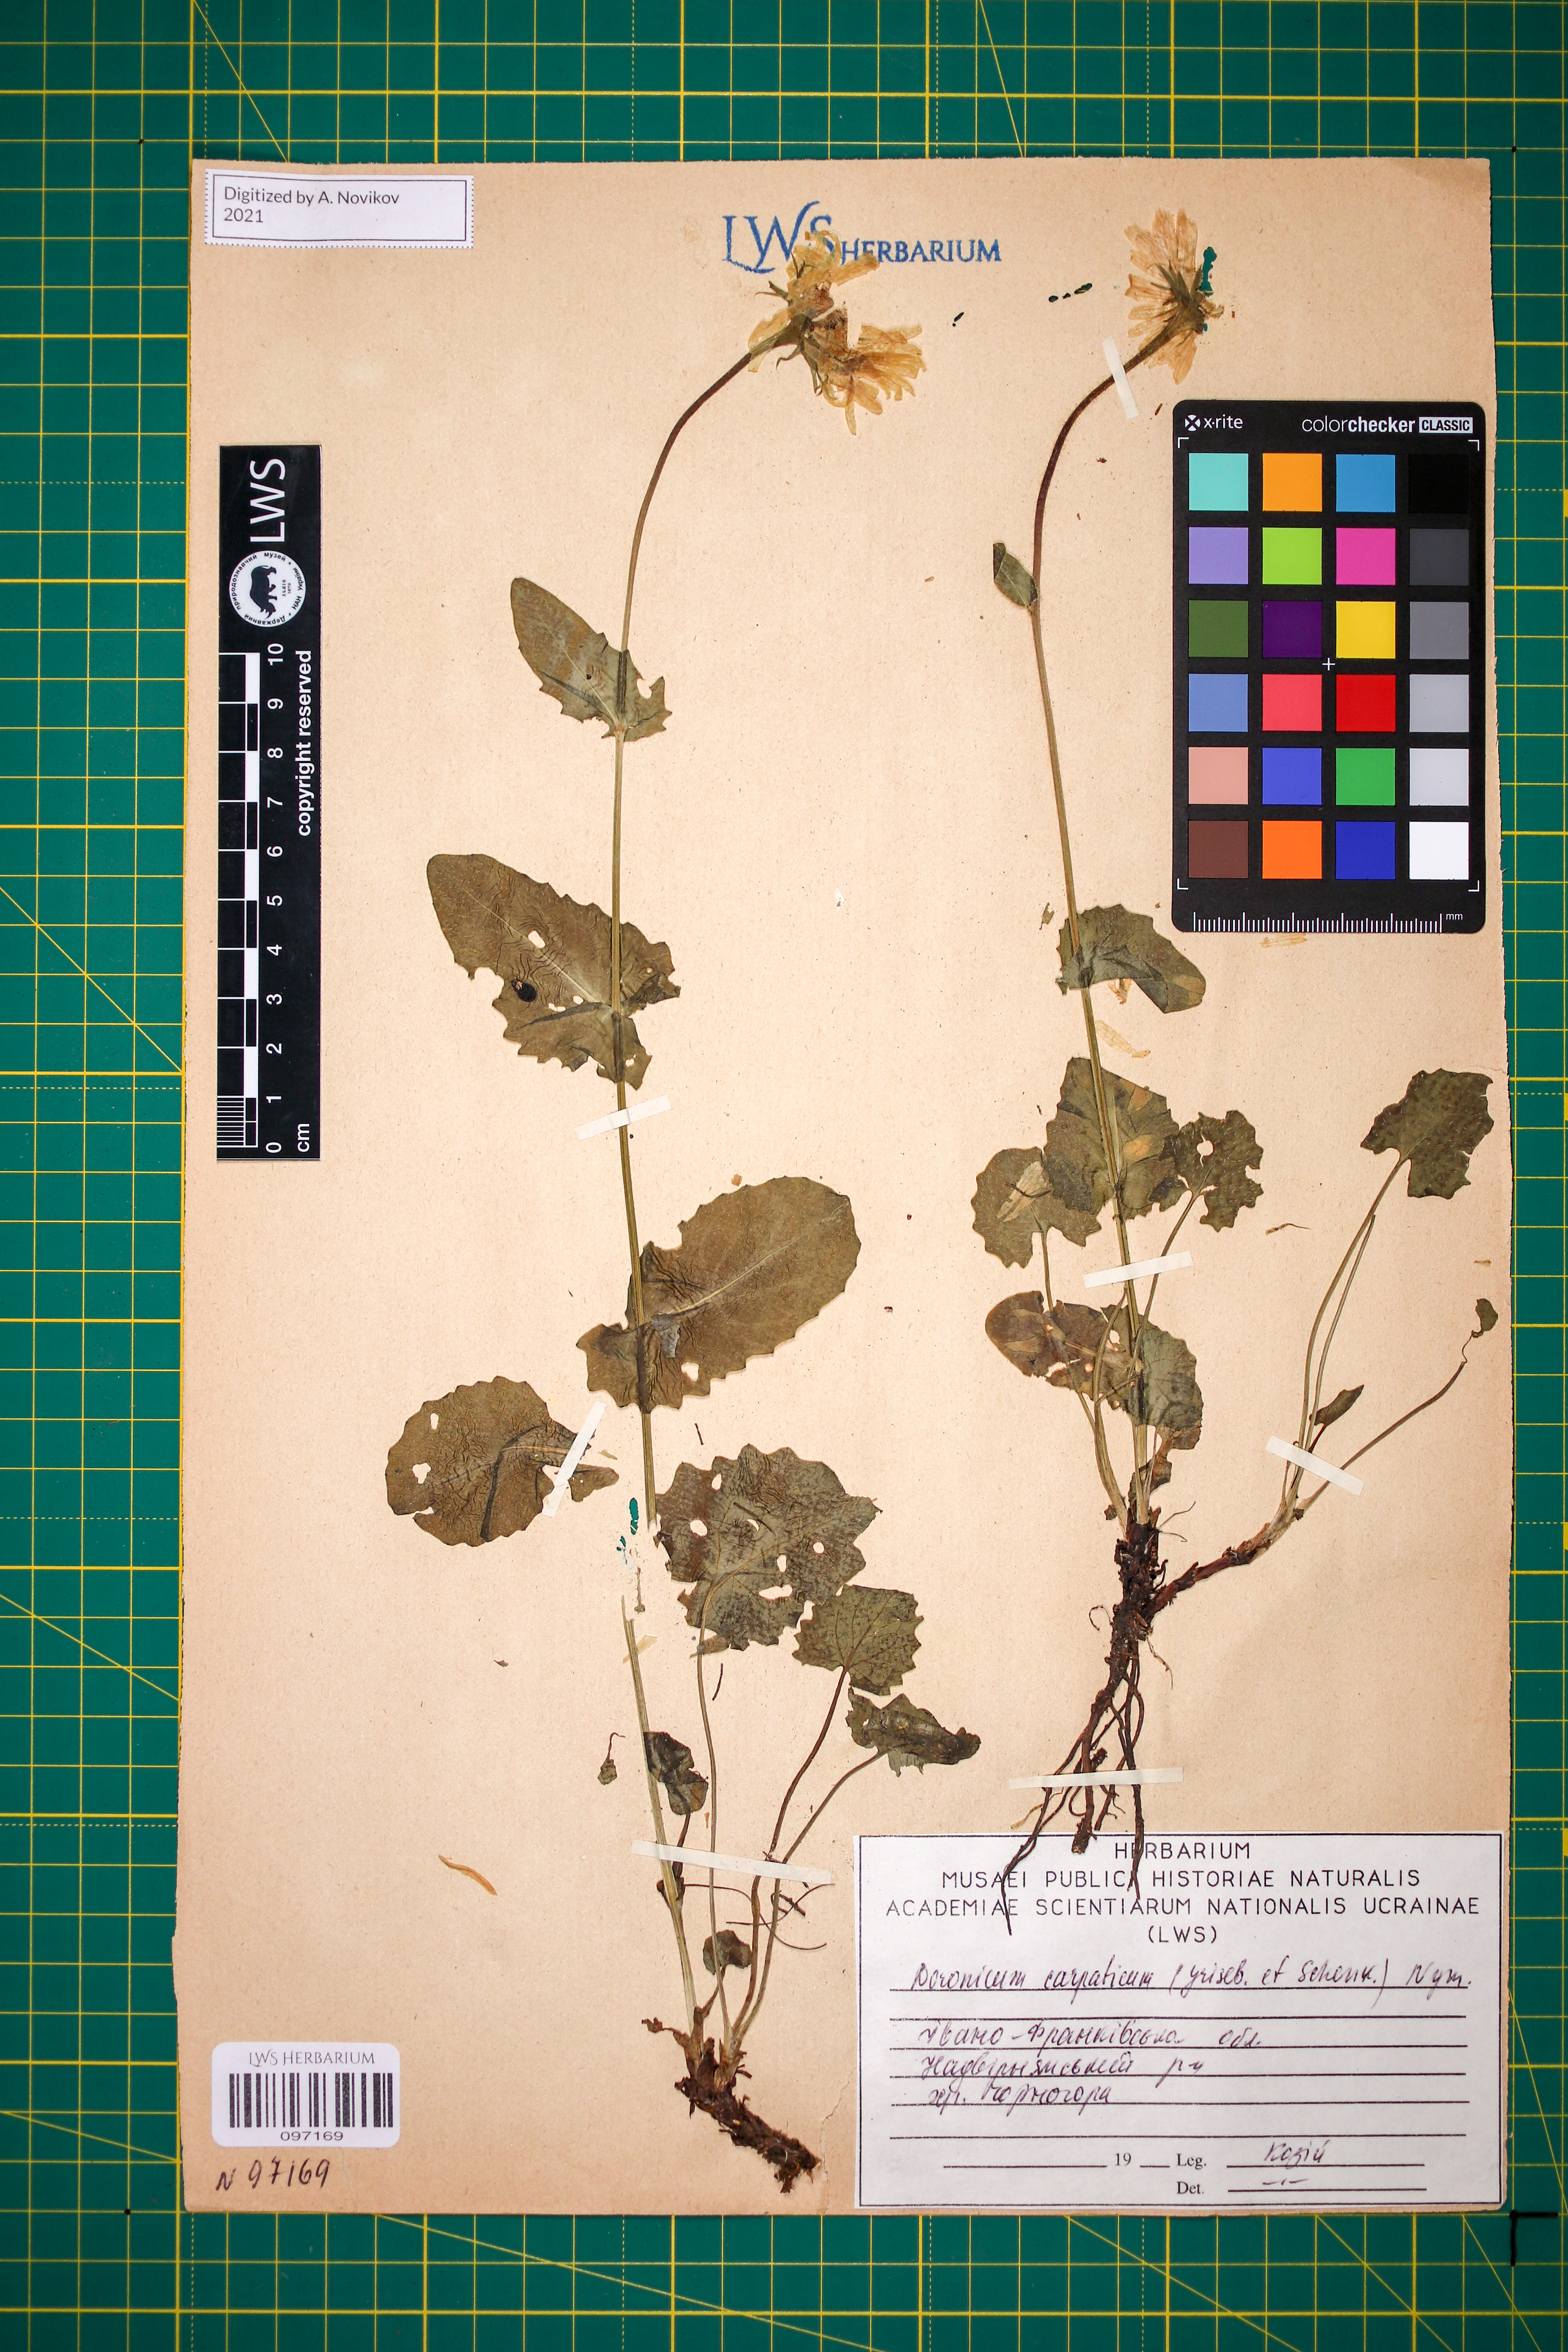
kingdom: Plantae
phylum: Tracheophyta
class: Magnoliopsida
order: Asterales
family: Asteraceae
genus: Doronicum
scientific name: Doronicum carpaticum
